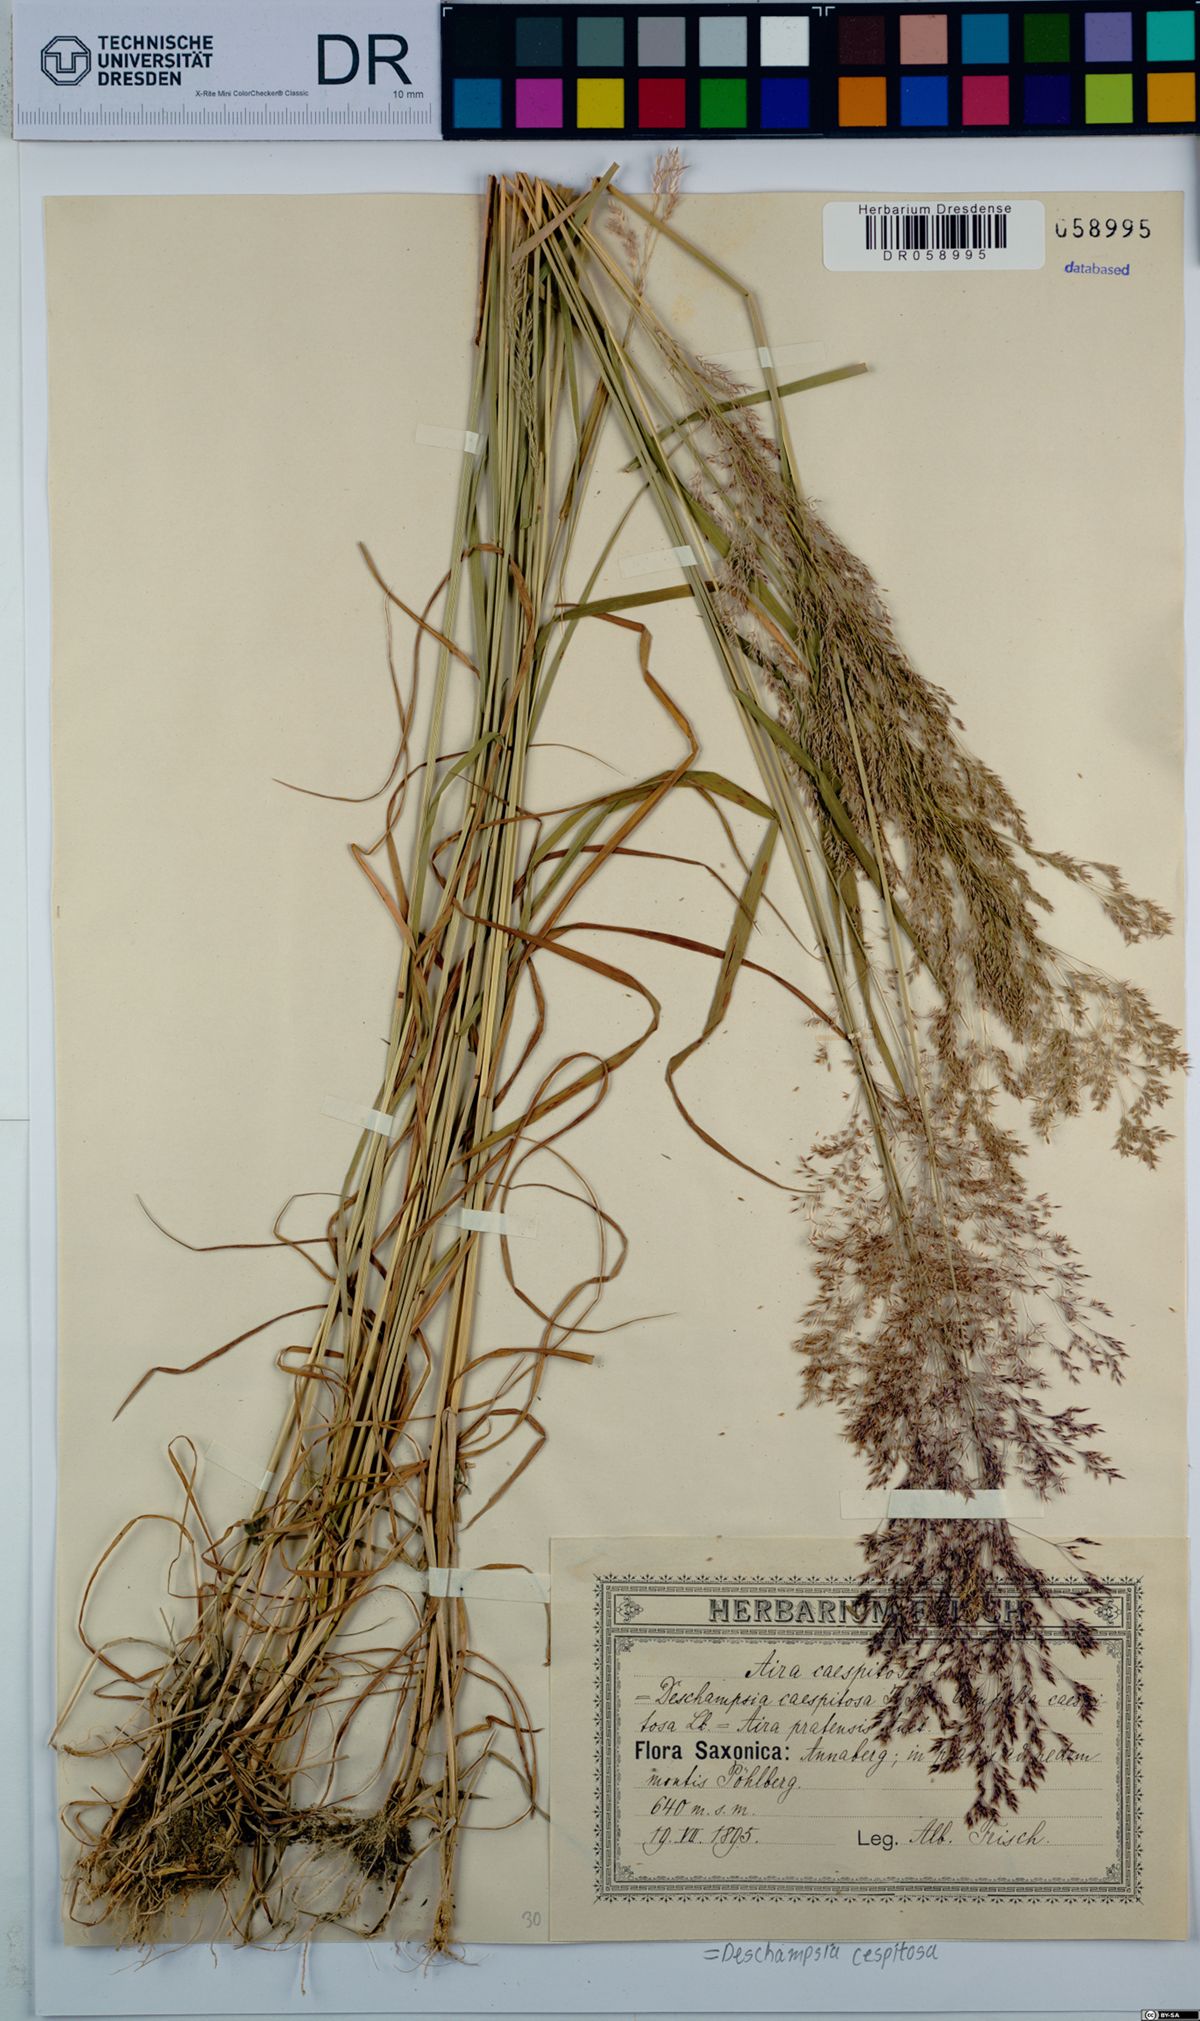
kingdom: Plantae
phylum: Tracheophyta
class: Liliopsida
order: Poales
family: Poaceae
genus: Deschampsia
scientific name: Deschampsia cespitosa
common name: Tufted hair-grass
